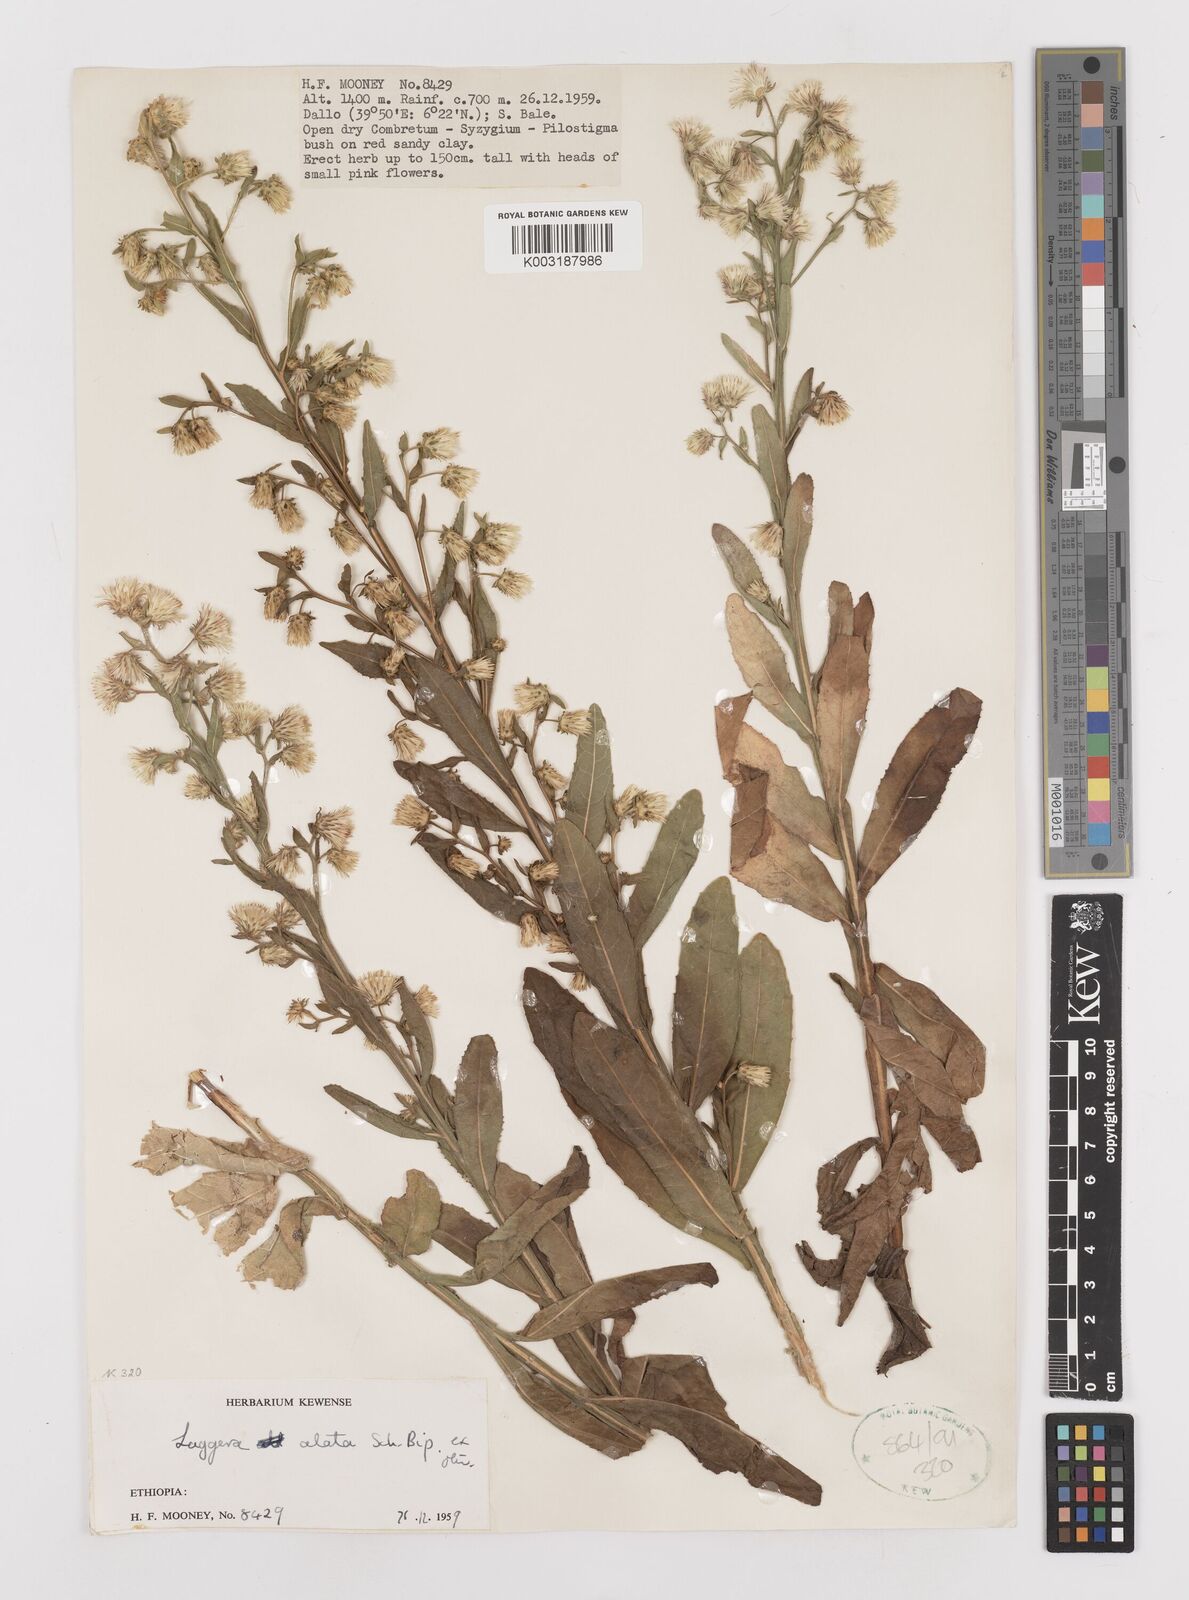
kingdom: Plantae
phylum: Tracheophyta
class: Magnoliopsida
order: Asterales
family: Asteraceae
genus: Laggera
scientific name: Laggera crispata
